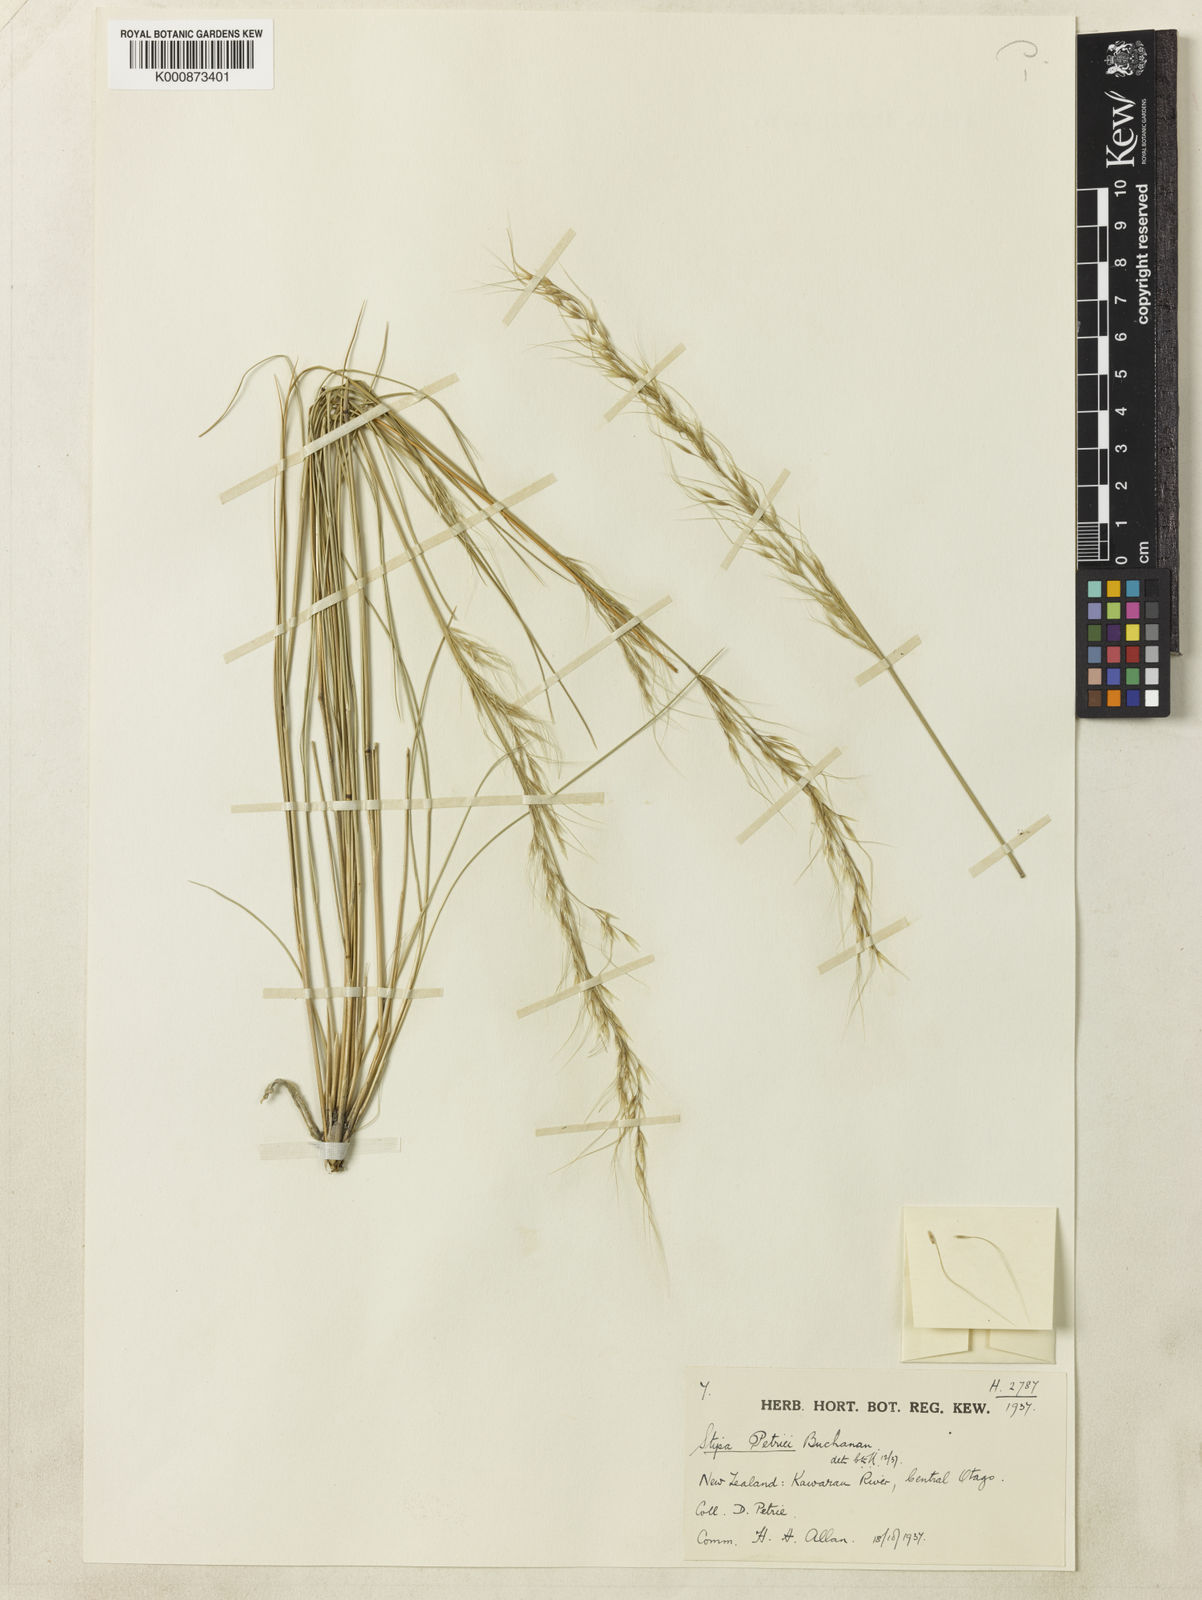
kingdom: Plantae
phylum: Tracheophyta
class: Liliopsida
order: Poales
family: Poaceae
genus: Stipa
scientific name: Stipa petriei
